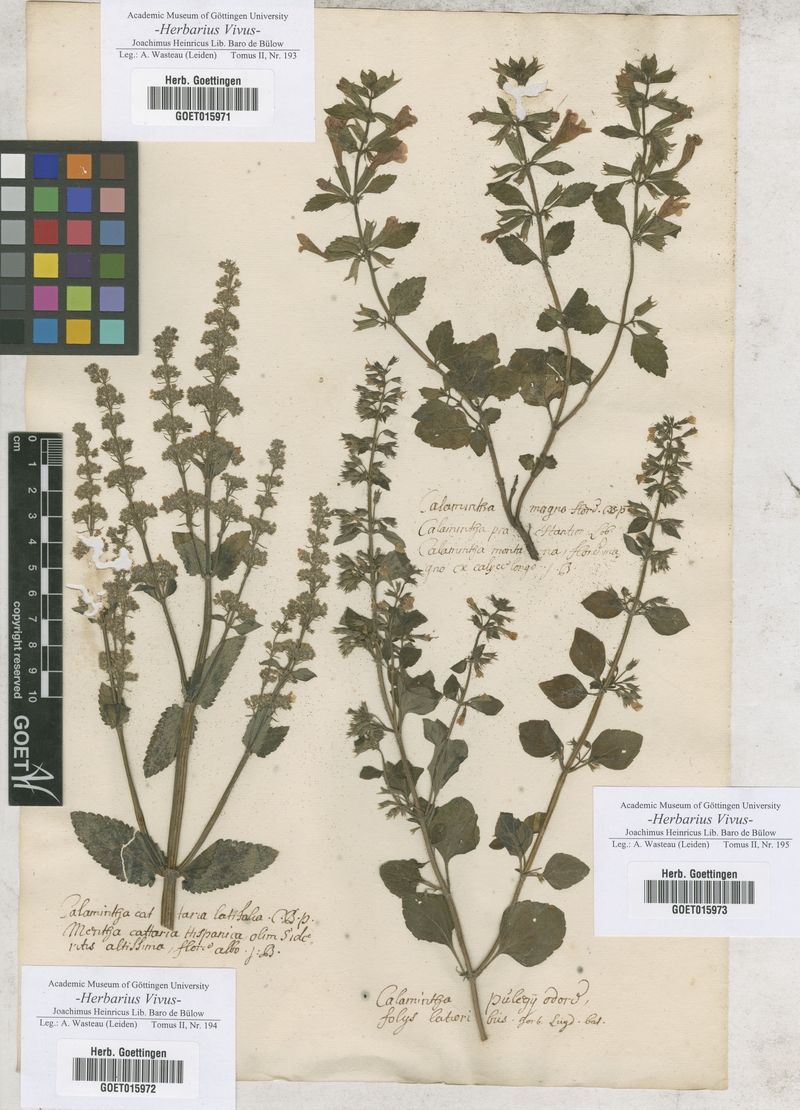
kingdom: Plantae
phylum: Tracheophyta
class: Magnoliopsida
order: Lamiales
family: Lamiaceae
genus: Calamintha
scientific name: Calamintha
